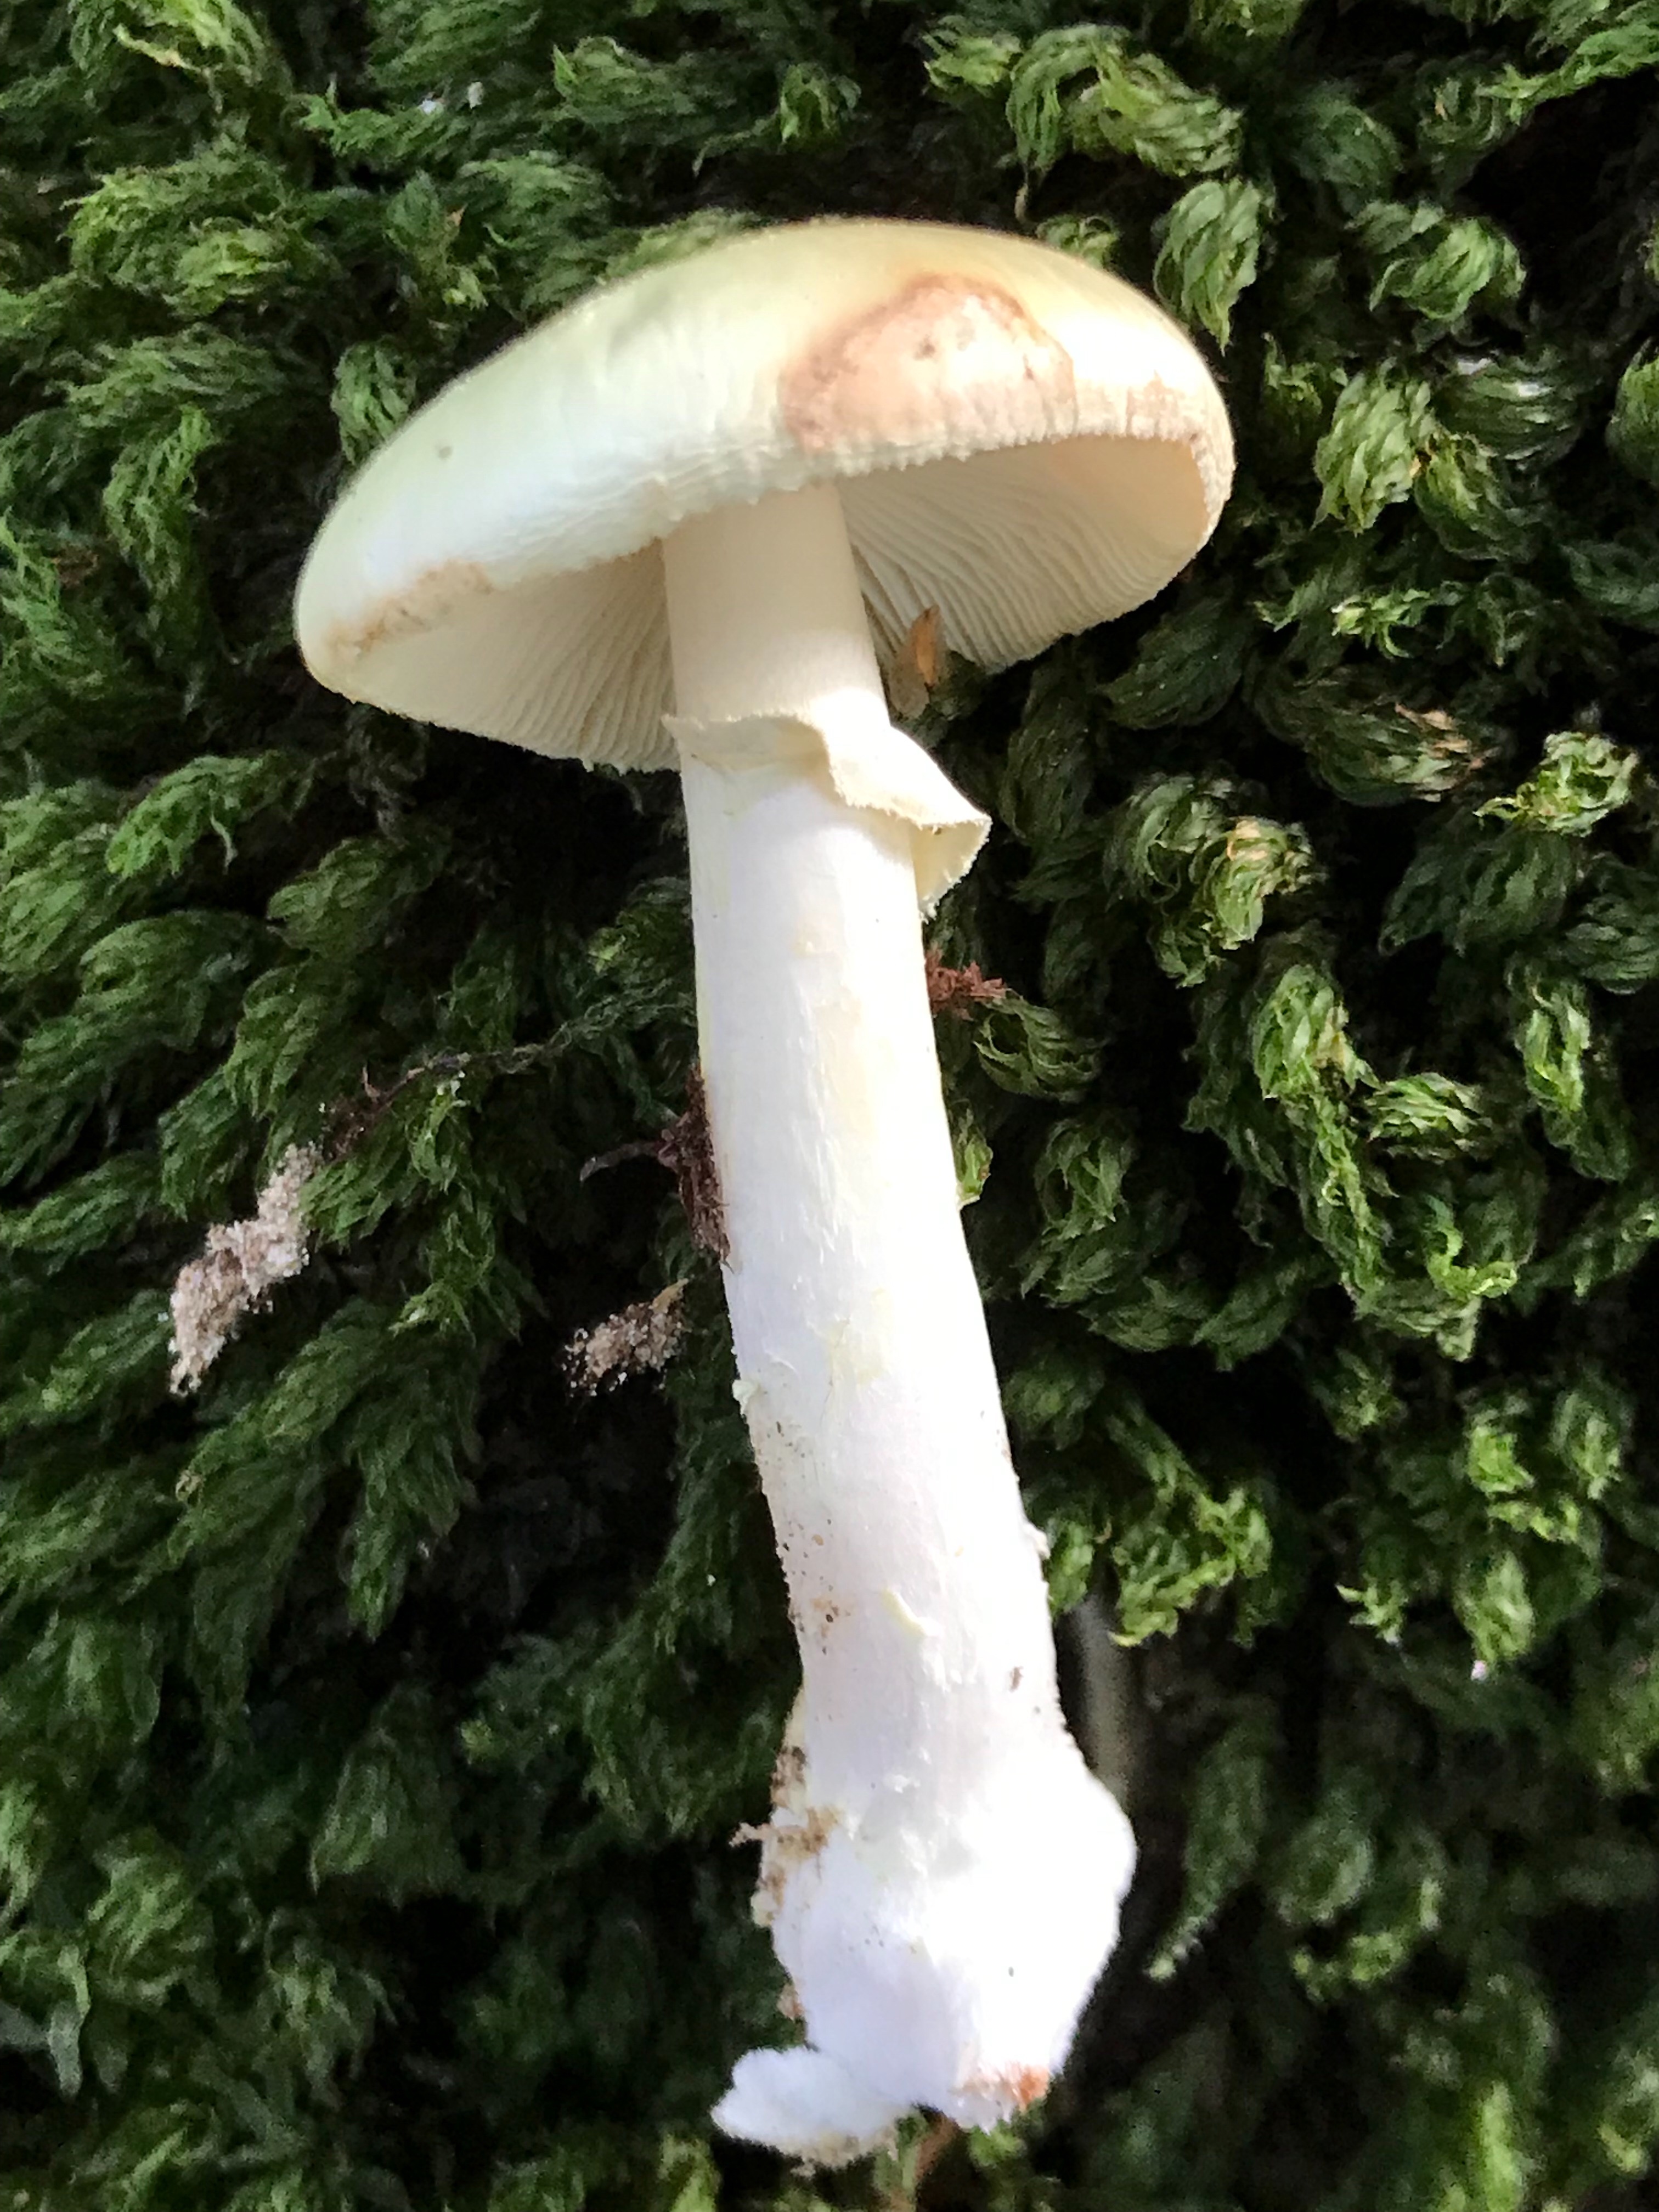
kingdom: Fungi
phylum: Basidiomycota
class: Agaricomycetes
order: Agaricales
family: Amanitaceae
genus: Amanita
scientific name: Amanita citrina
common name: kugleknoldet fluesvamp
